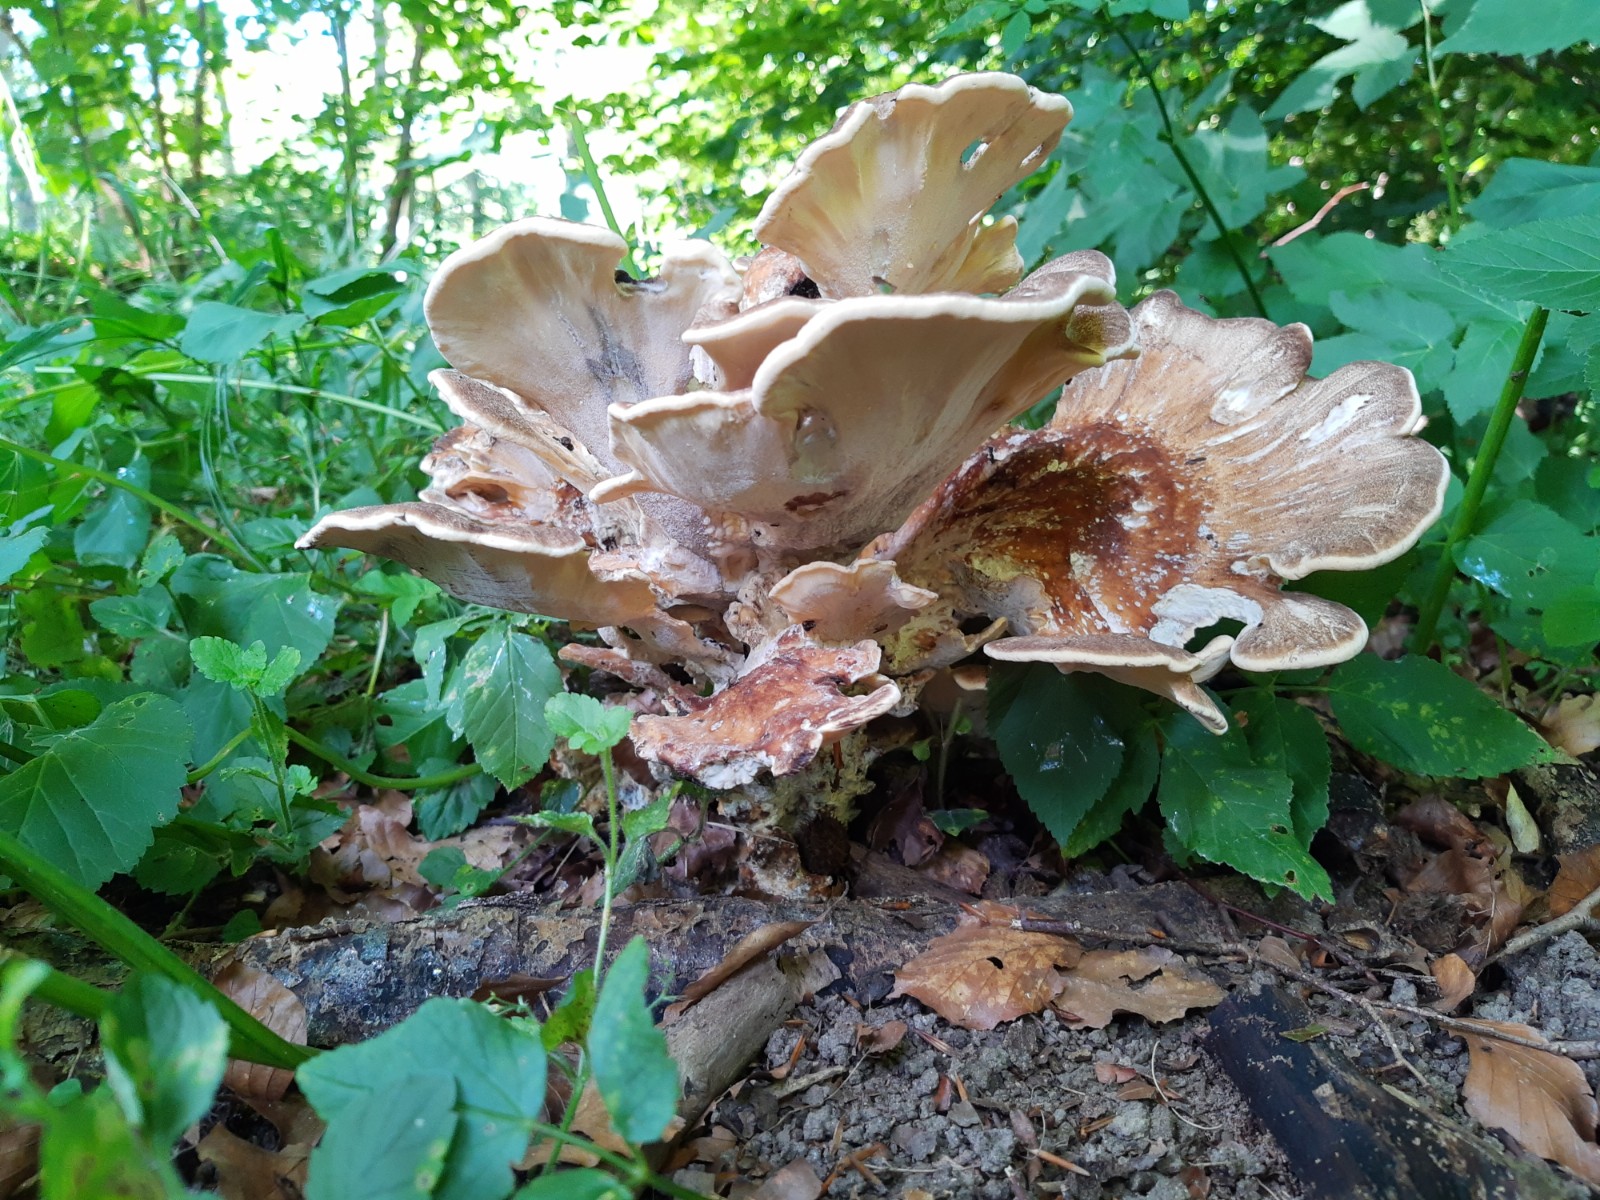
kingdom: Fungi
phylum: Basidiomycota
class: Agaricomycetes
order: Polyporales
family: Meripilaceae
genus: Meripilus
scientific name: Meripilus giganteus
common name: kæmpeporesvamp
